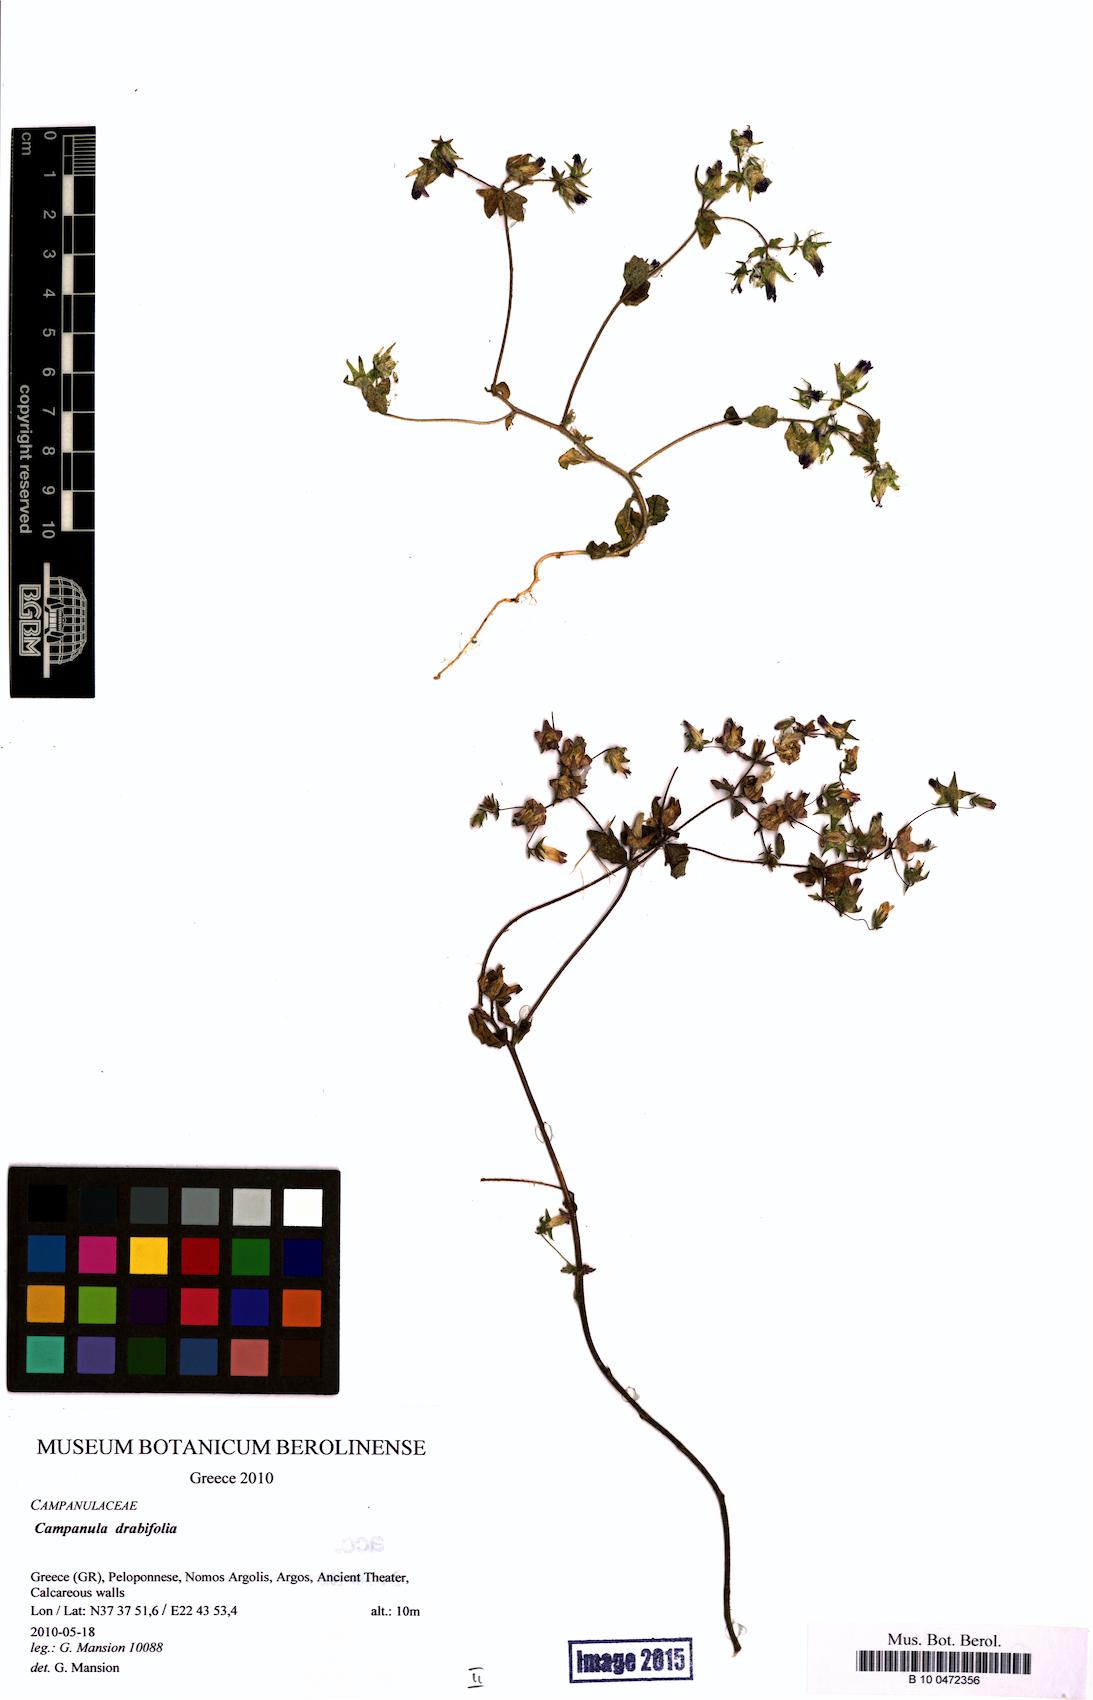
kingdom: Plantae
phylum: Tracheophyta
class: Magnoliopsida
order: Asterales
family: Campanulaceae
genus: Campanula
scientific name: Campanula drabifolia
